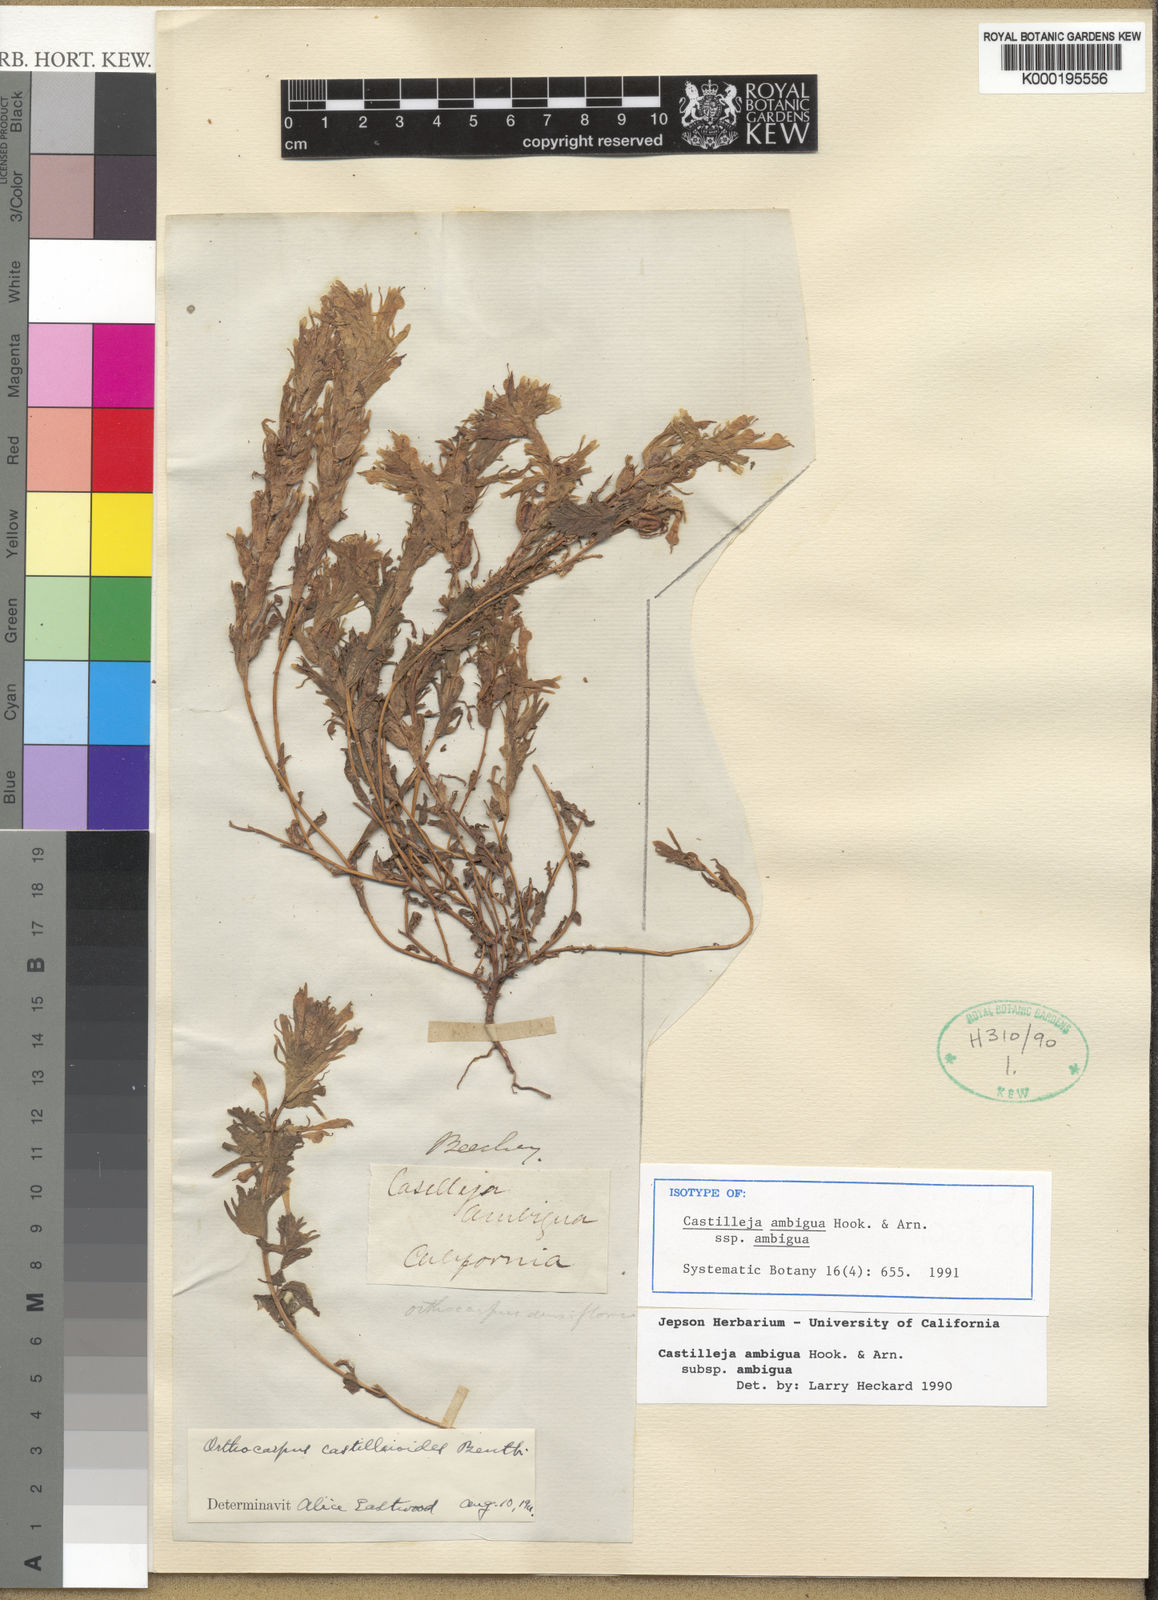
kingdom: Plantae
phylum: Tracheophyta
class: Magnoliopsida
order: Lamiales
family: Orobanchaceae
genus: Castilleja
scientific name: Castilleja ambigua
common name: Johnny-nip
